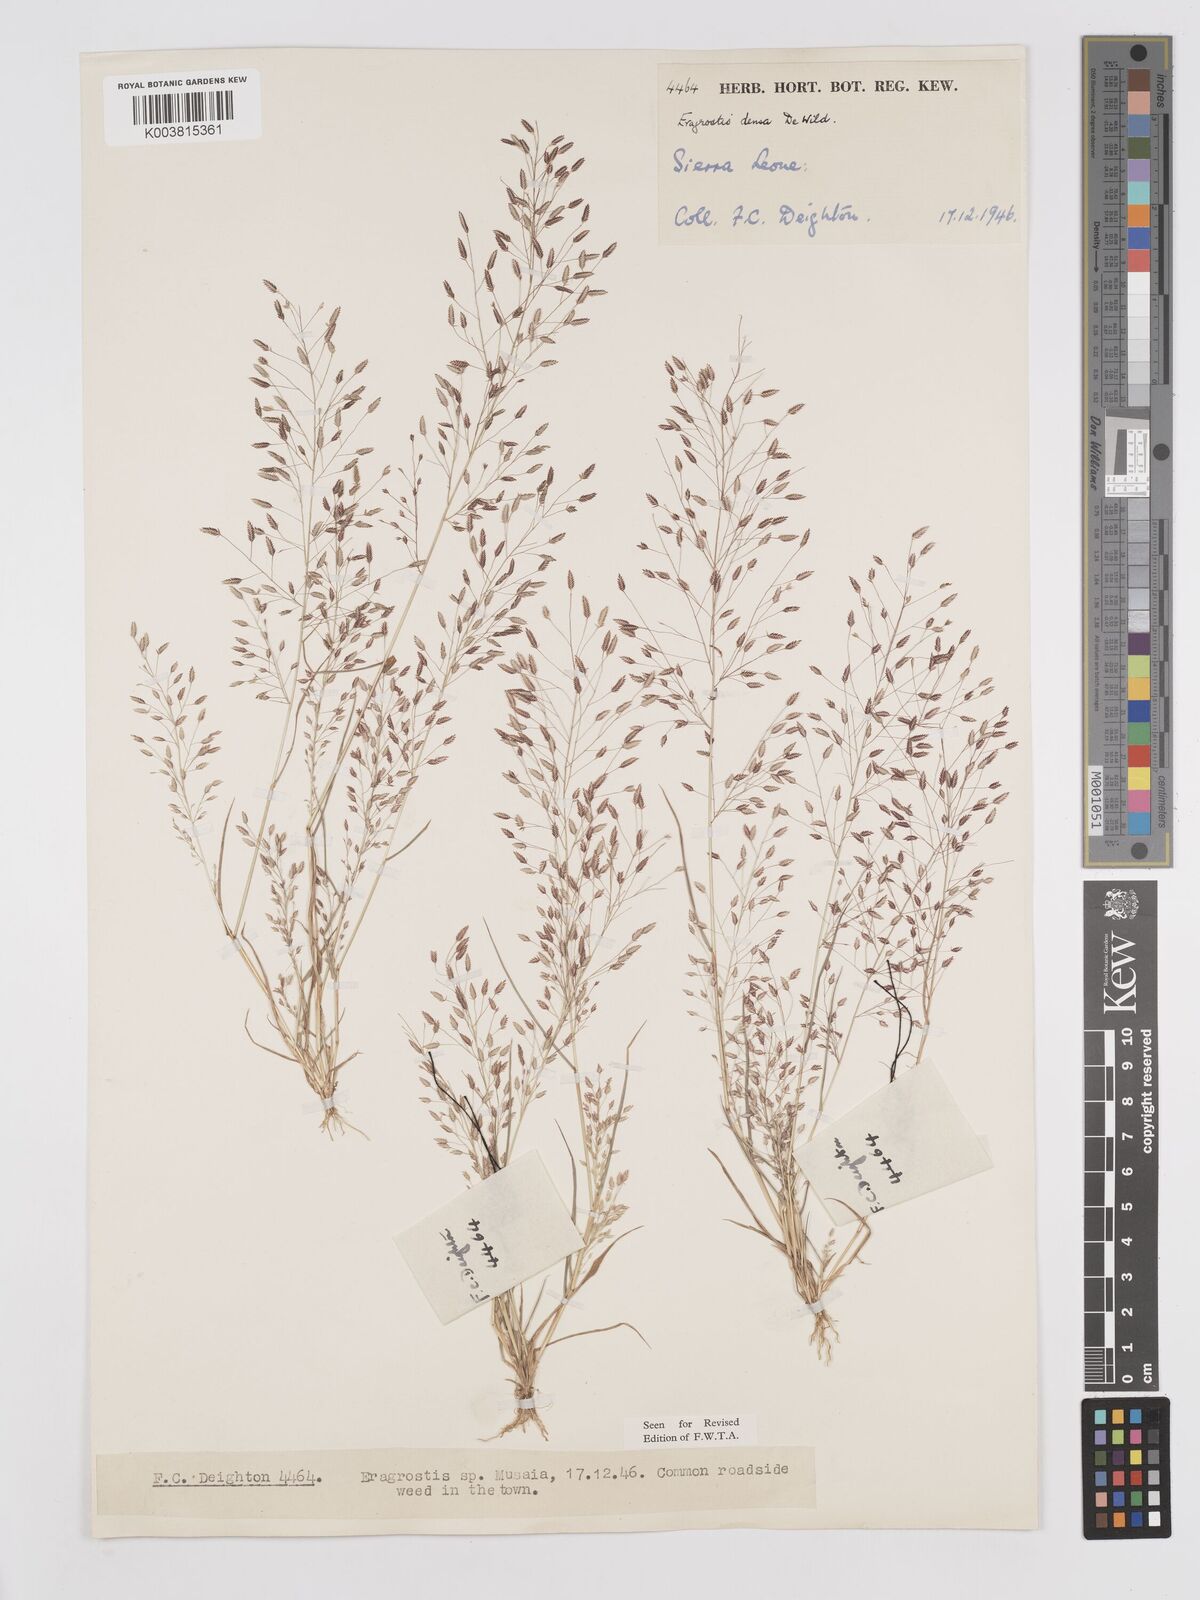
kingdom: Plantae
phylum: Tracheophyta
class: Liliopsida
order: Poales
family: Poaceae
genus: Eragrostis
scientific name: Eragrostis welwitschii
